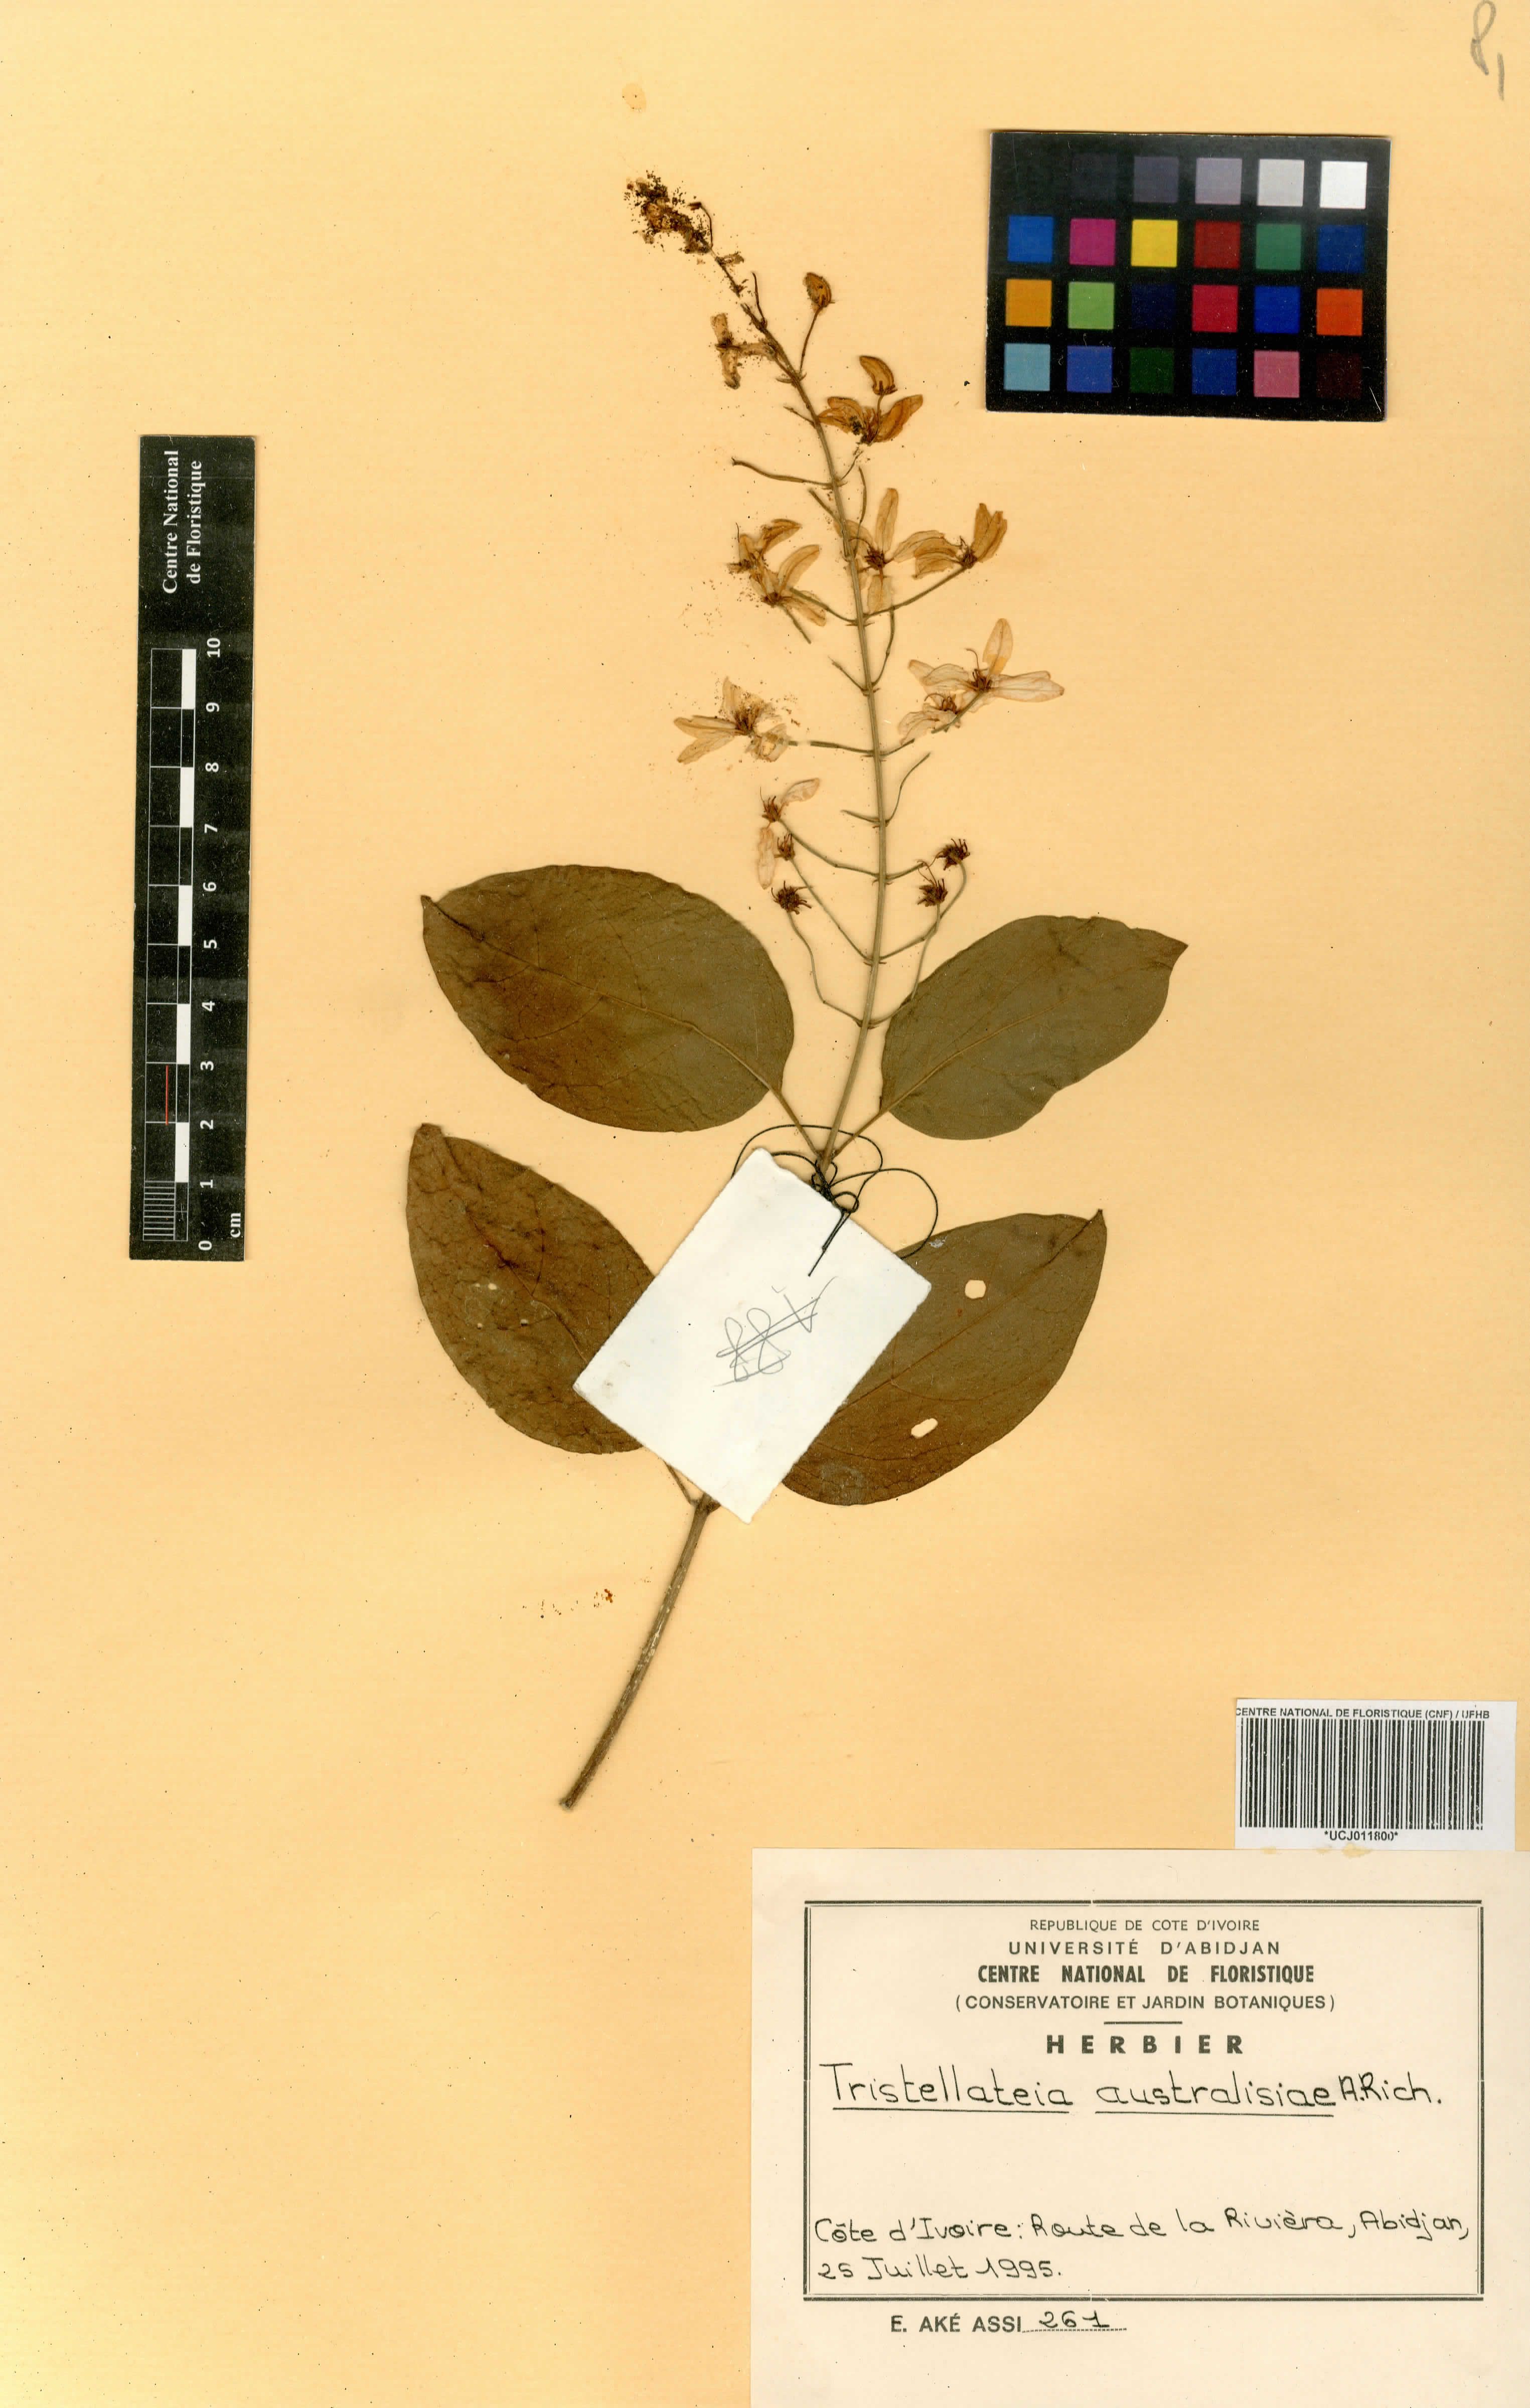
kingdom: Plantae
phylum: Tracheophyta
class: Magnoliopsida
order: Malpighiales
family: Malpighiaceae
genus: Tristellateia
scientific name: Tristellateia australasiae
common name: Australian goldvine
